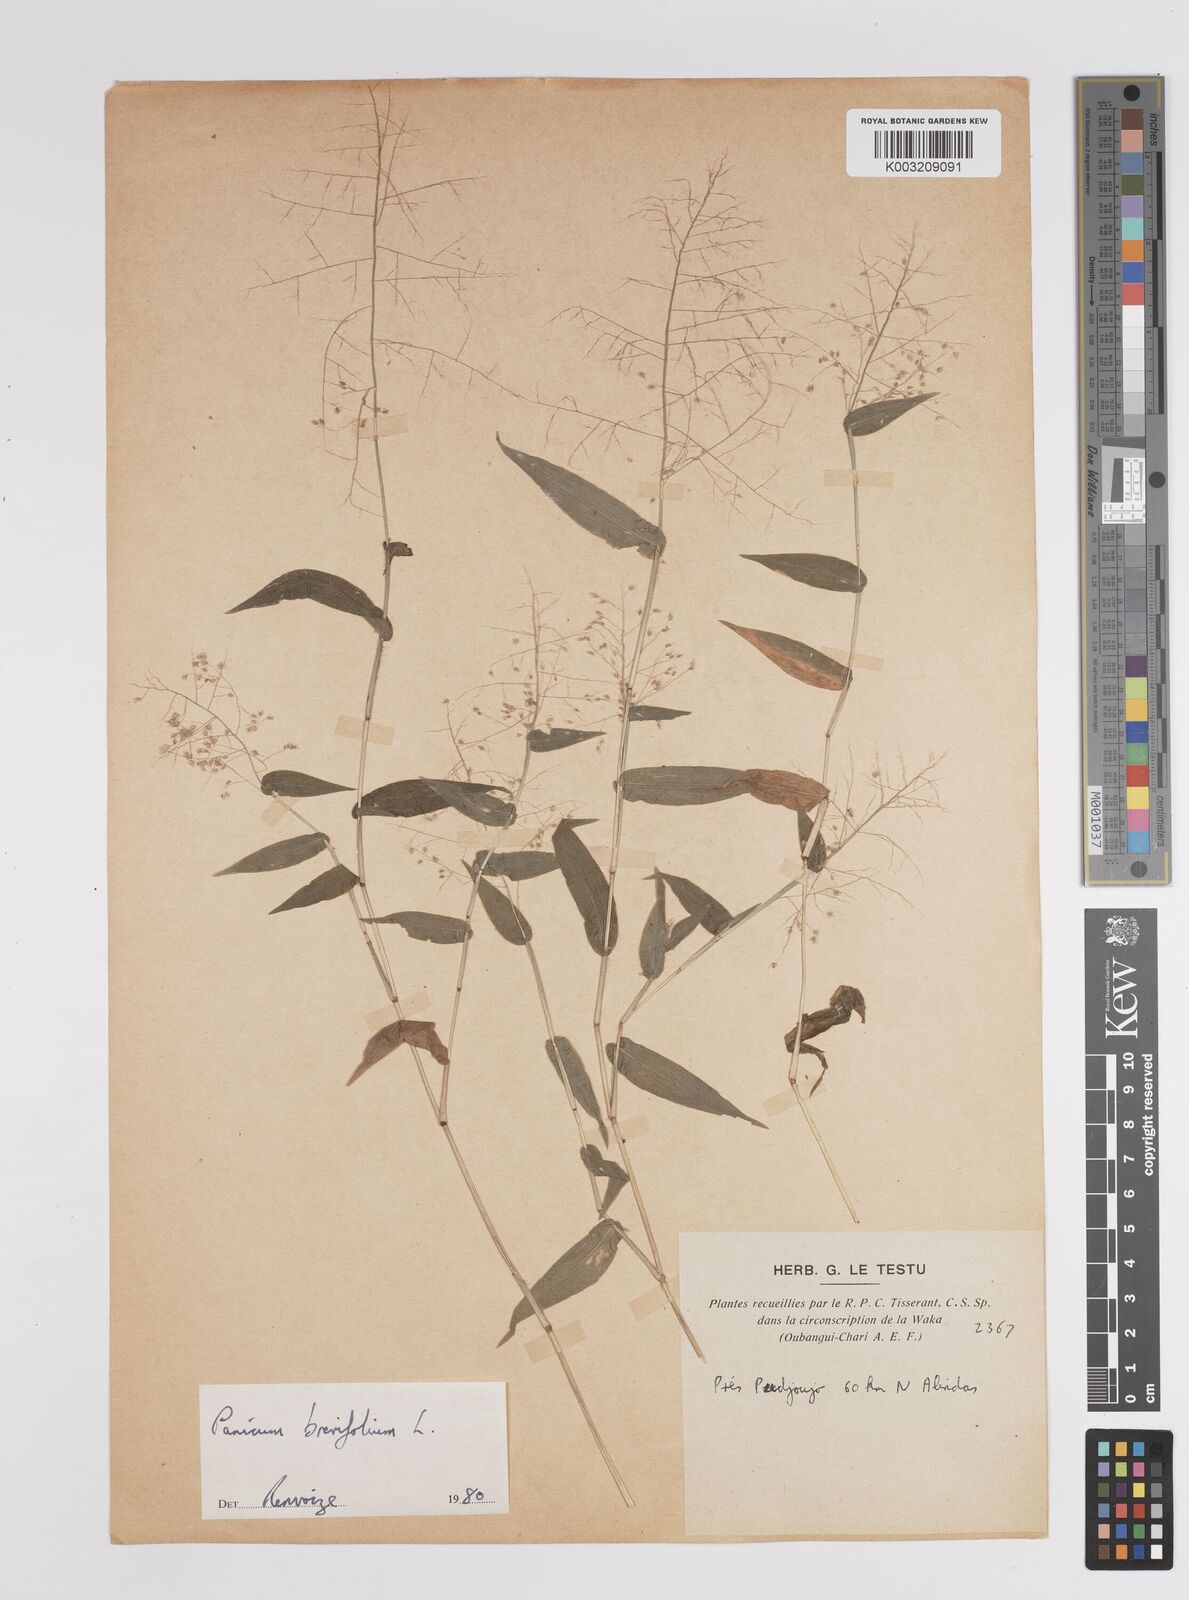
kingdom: Plantae
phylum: Tracheophyta
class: Liliopsida
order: Poales
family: Poaceae
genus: Panicum
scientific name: Panicum brevifolium
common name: Shortleaf panic grass
